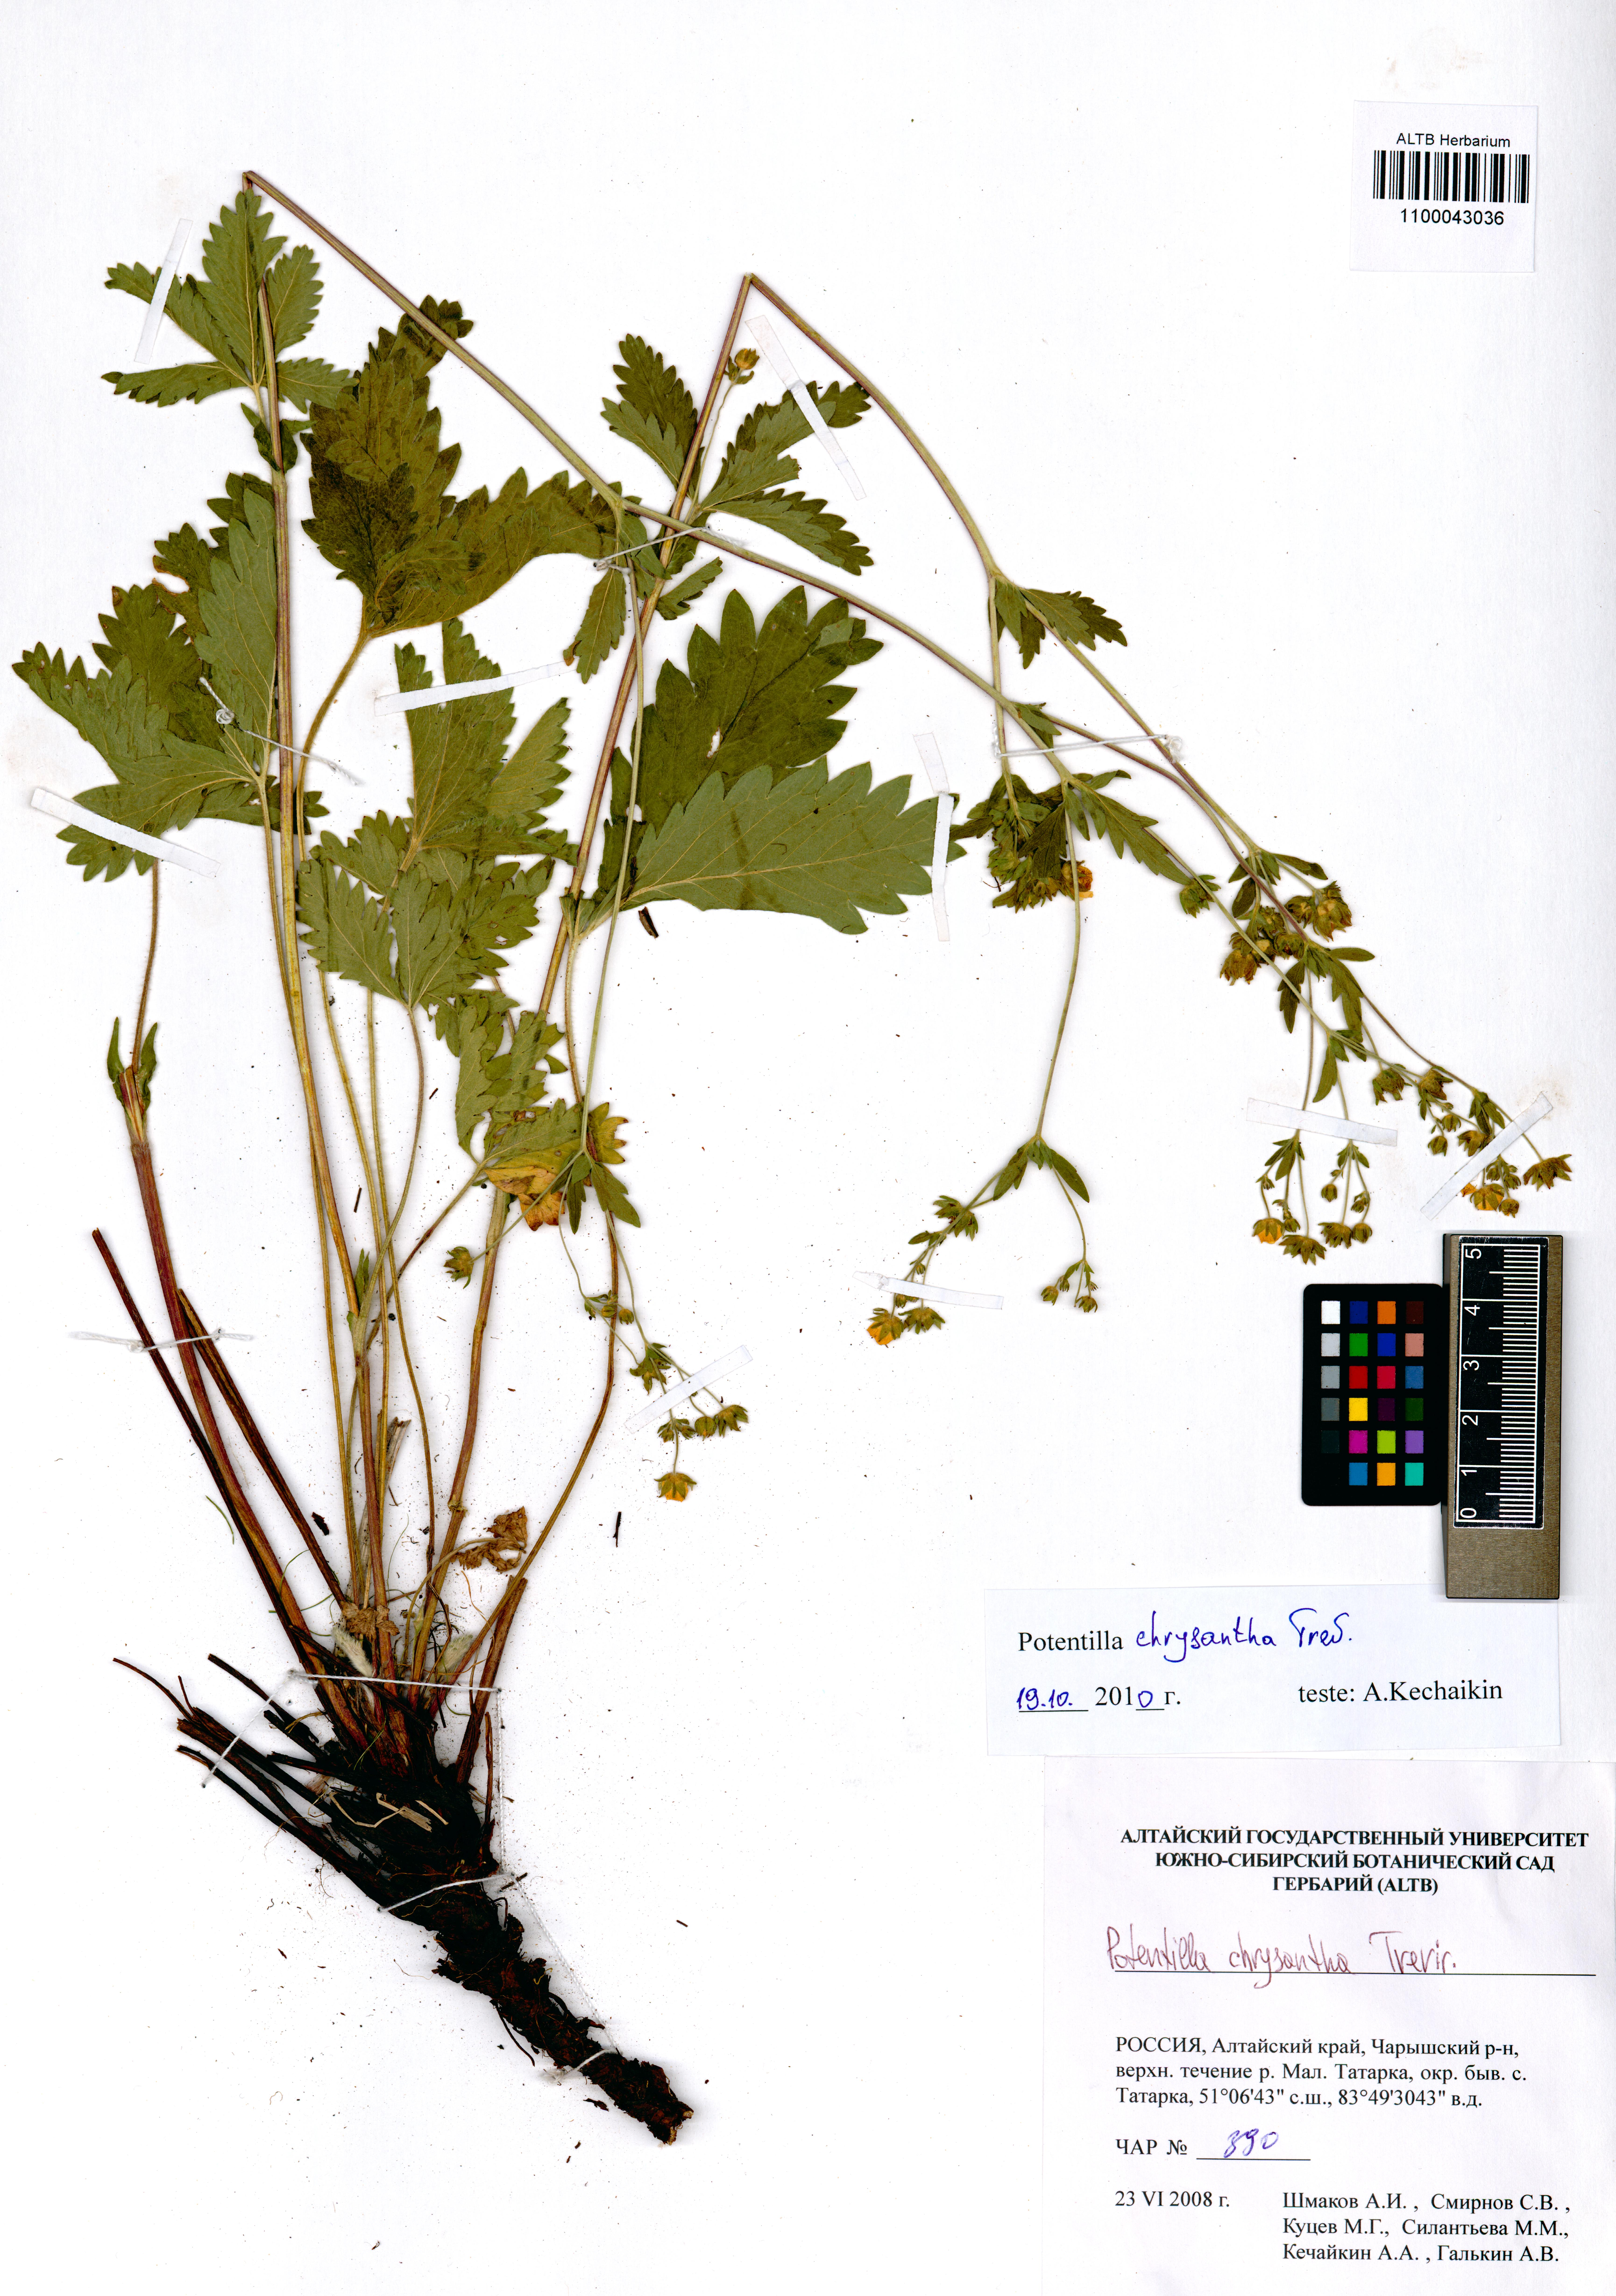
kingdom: Plantae
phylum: Tracheophyta
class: Magnoliopsida
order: Rosales
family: Rosaceae
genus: Potentilla
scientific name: Potentilla chrysantha
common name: Thuringian cinquefoil
